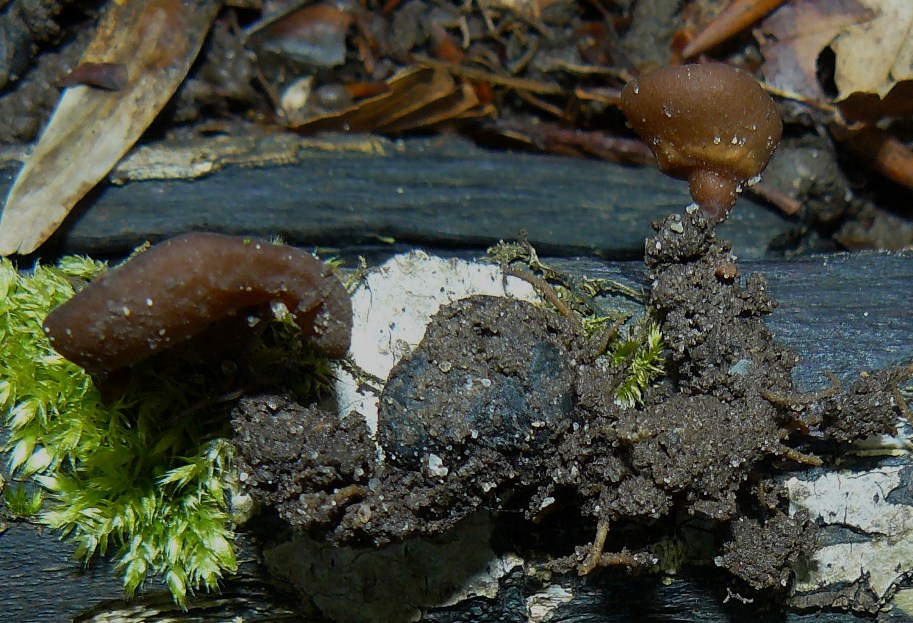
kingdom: Fungi
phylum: Ascomycota
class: Leotiomycetes
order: Helotiales
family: Sclerotiniaceae
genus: Dumontinia
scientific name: Dumontinia tuberosa
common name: anemone-knoldskive
